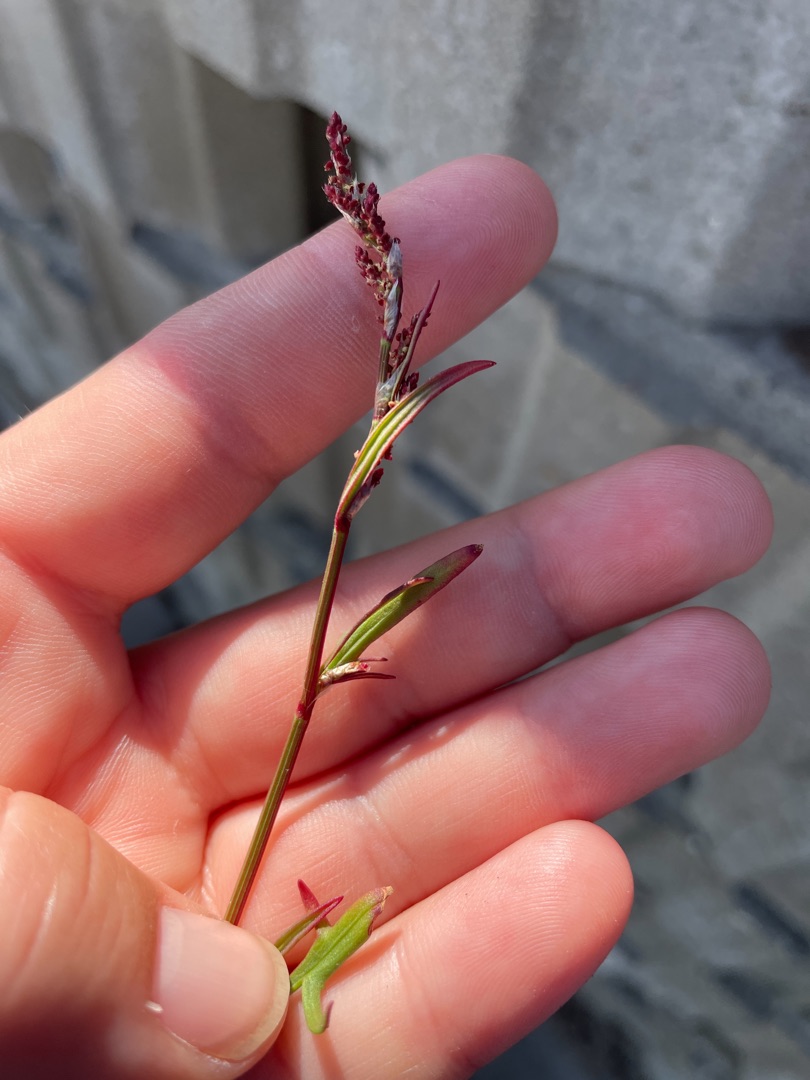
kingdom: Plantae
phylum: Tracheophyta
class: Magnoliopsida
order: Caryophyllales
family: Polygonaceae
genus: Rumex
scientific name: Rumex acetosella
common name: Rødknæ
